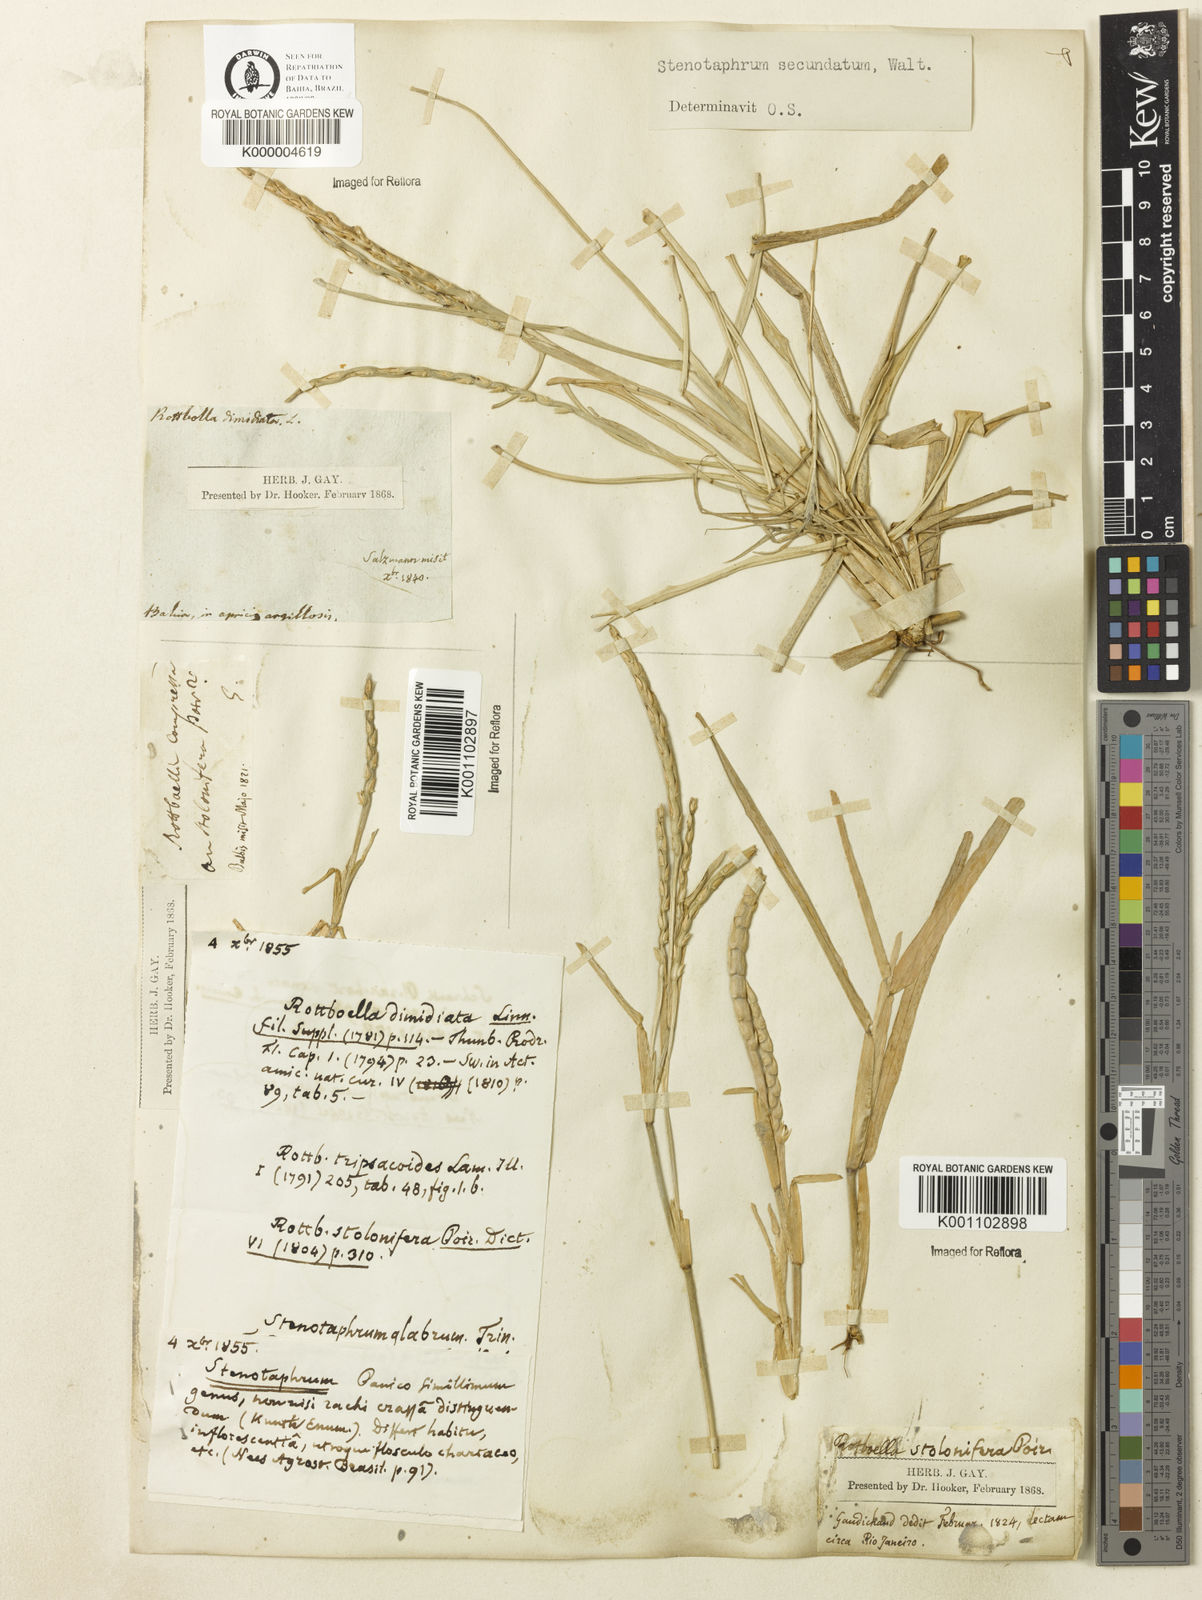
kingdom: Plantae
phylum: Tracheophyta
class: Liliopsida
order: Poales
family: Poaceae
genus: Stenotaphrum
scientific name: Stenotaphrum secundatum
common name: St. augustine grass
